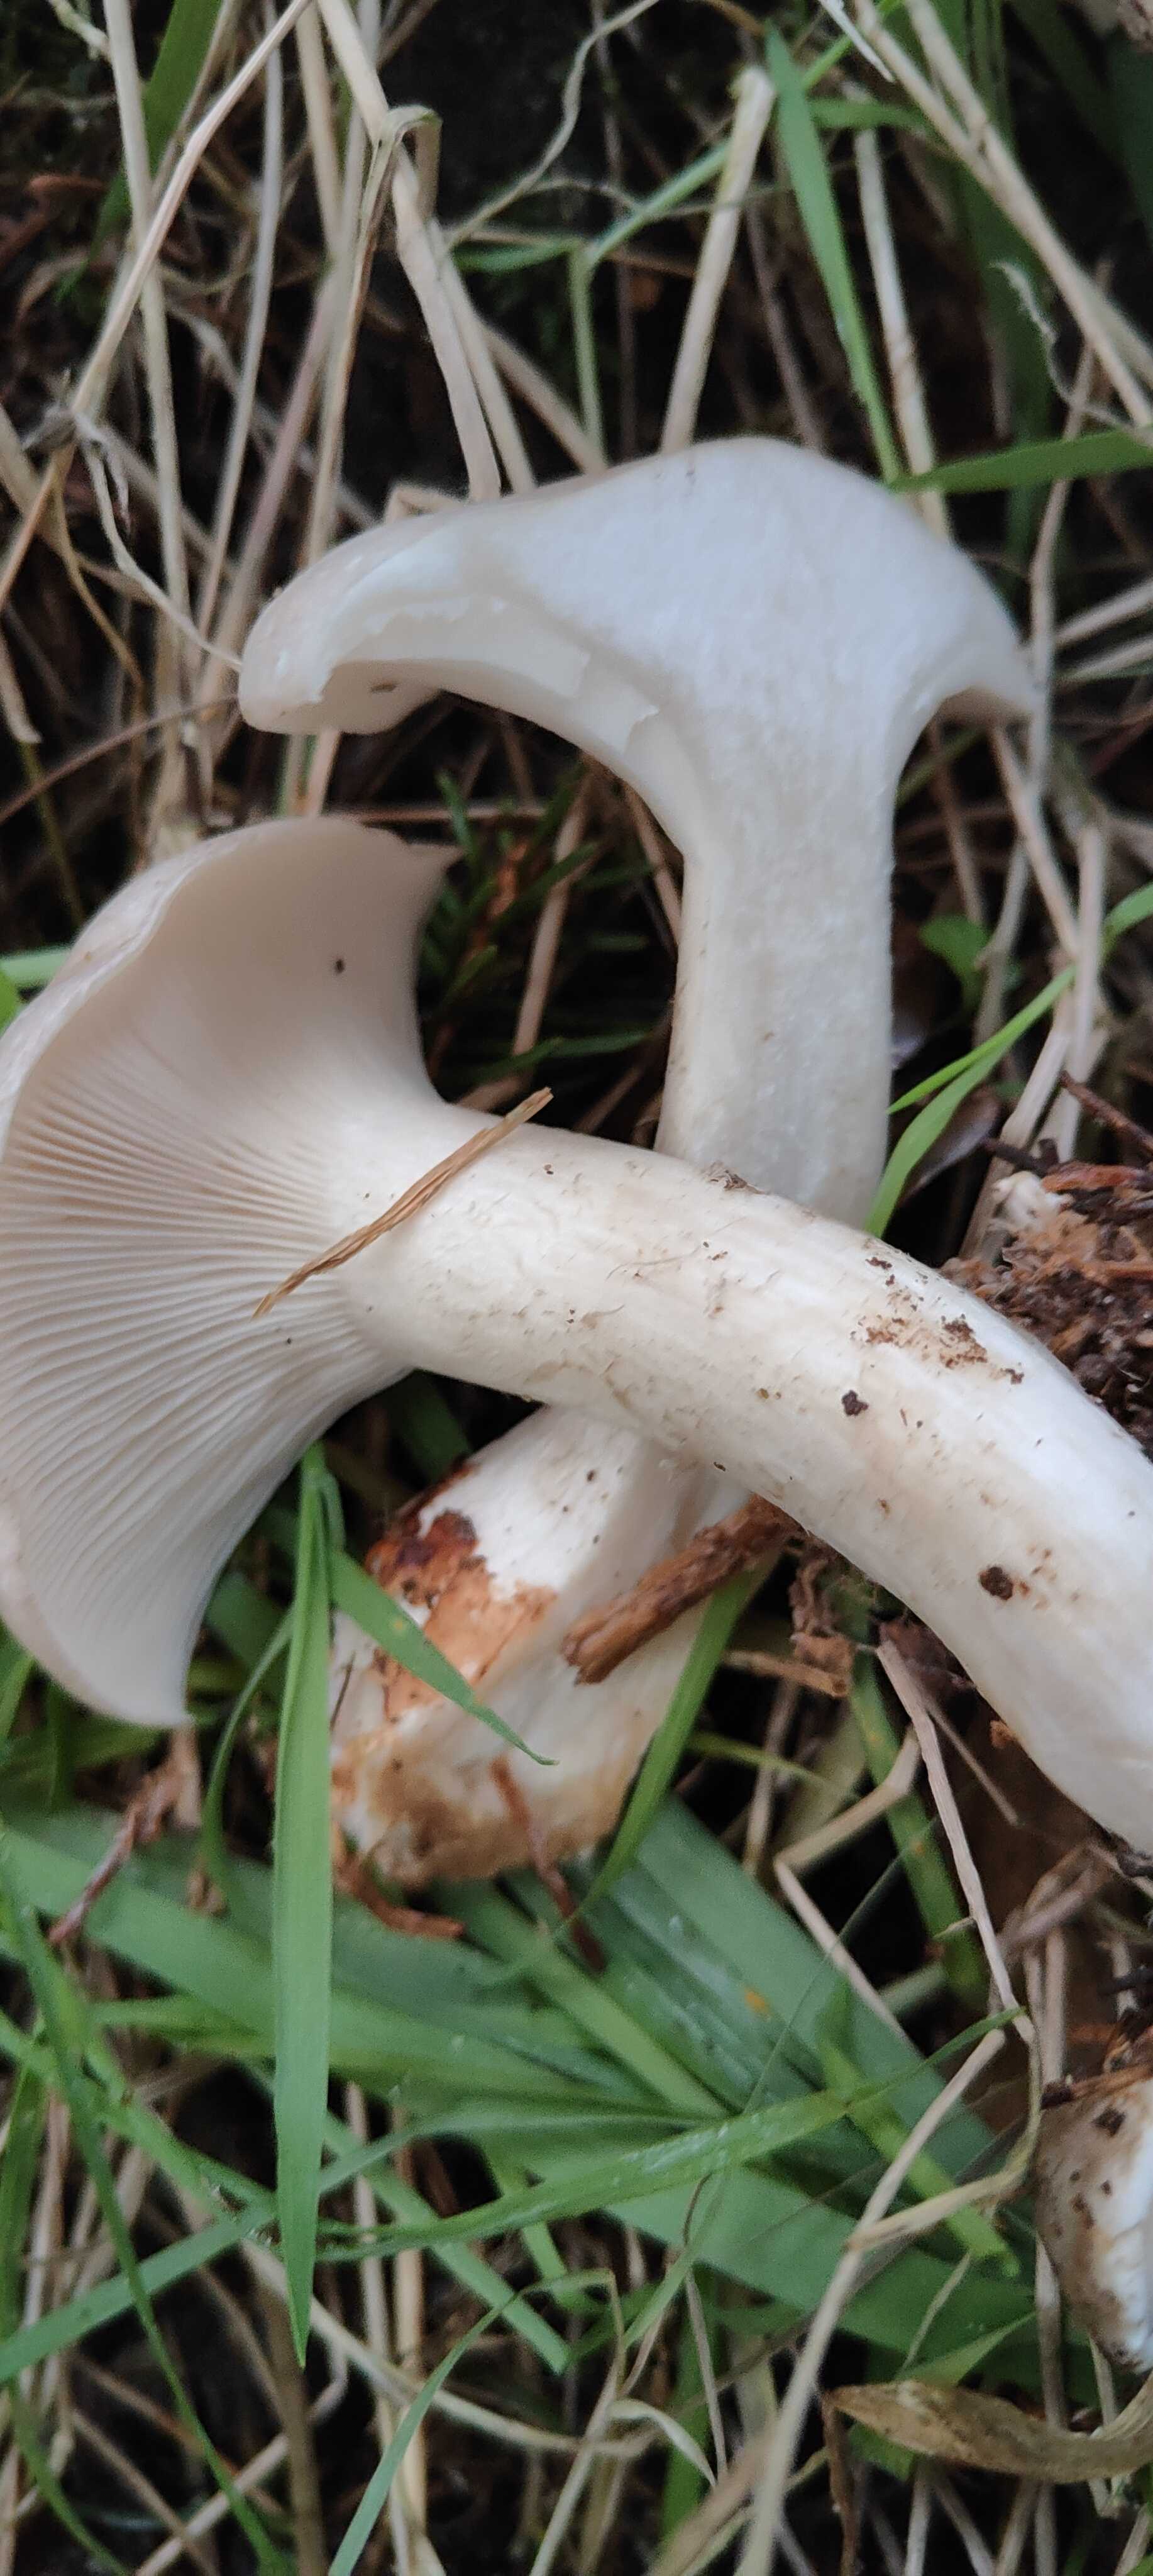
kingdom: Fungi
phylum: Basidiomycota
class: Agaricomycetes
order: Agaricales
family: Tricholomataceae
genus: Clitocybe
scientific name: Clitocybe nebularis
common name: tåge-tragthat
